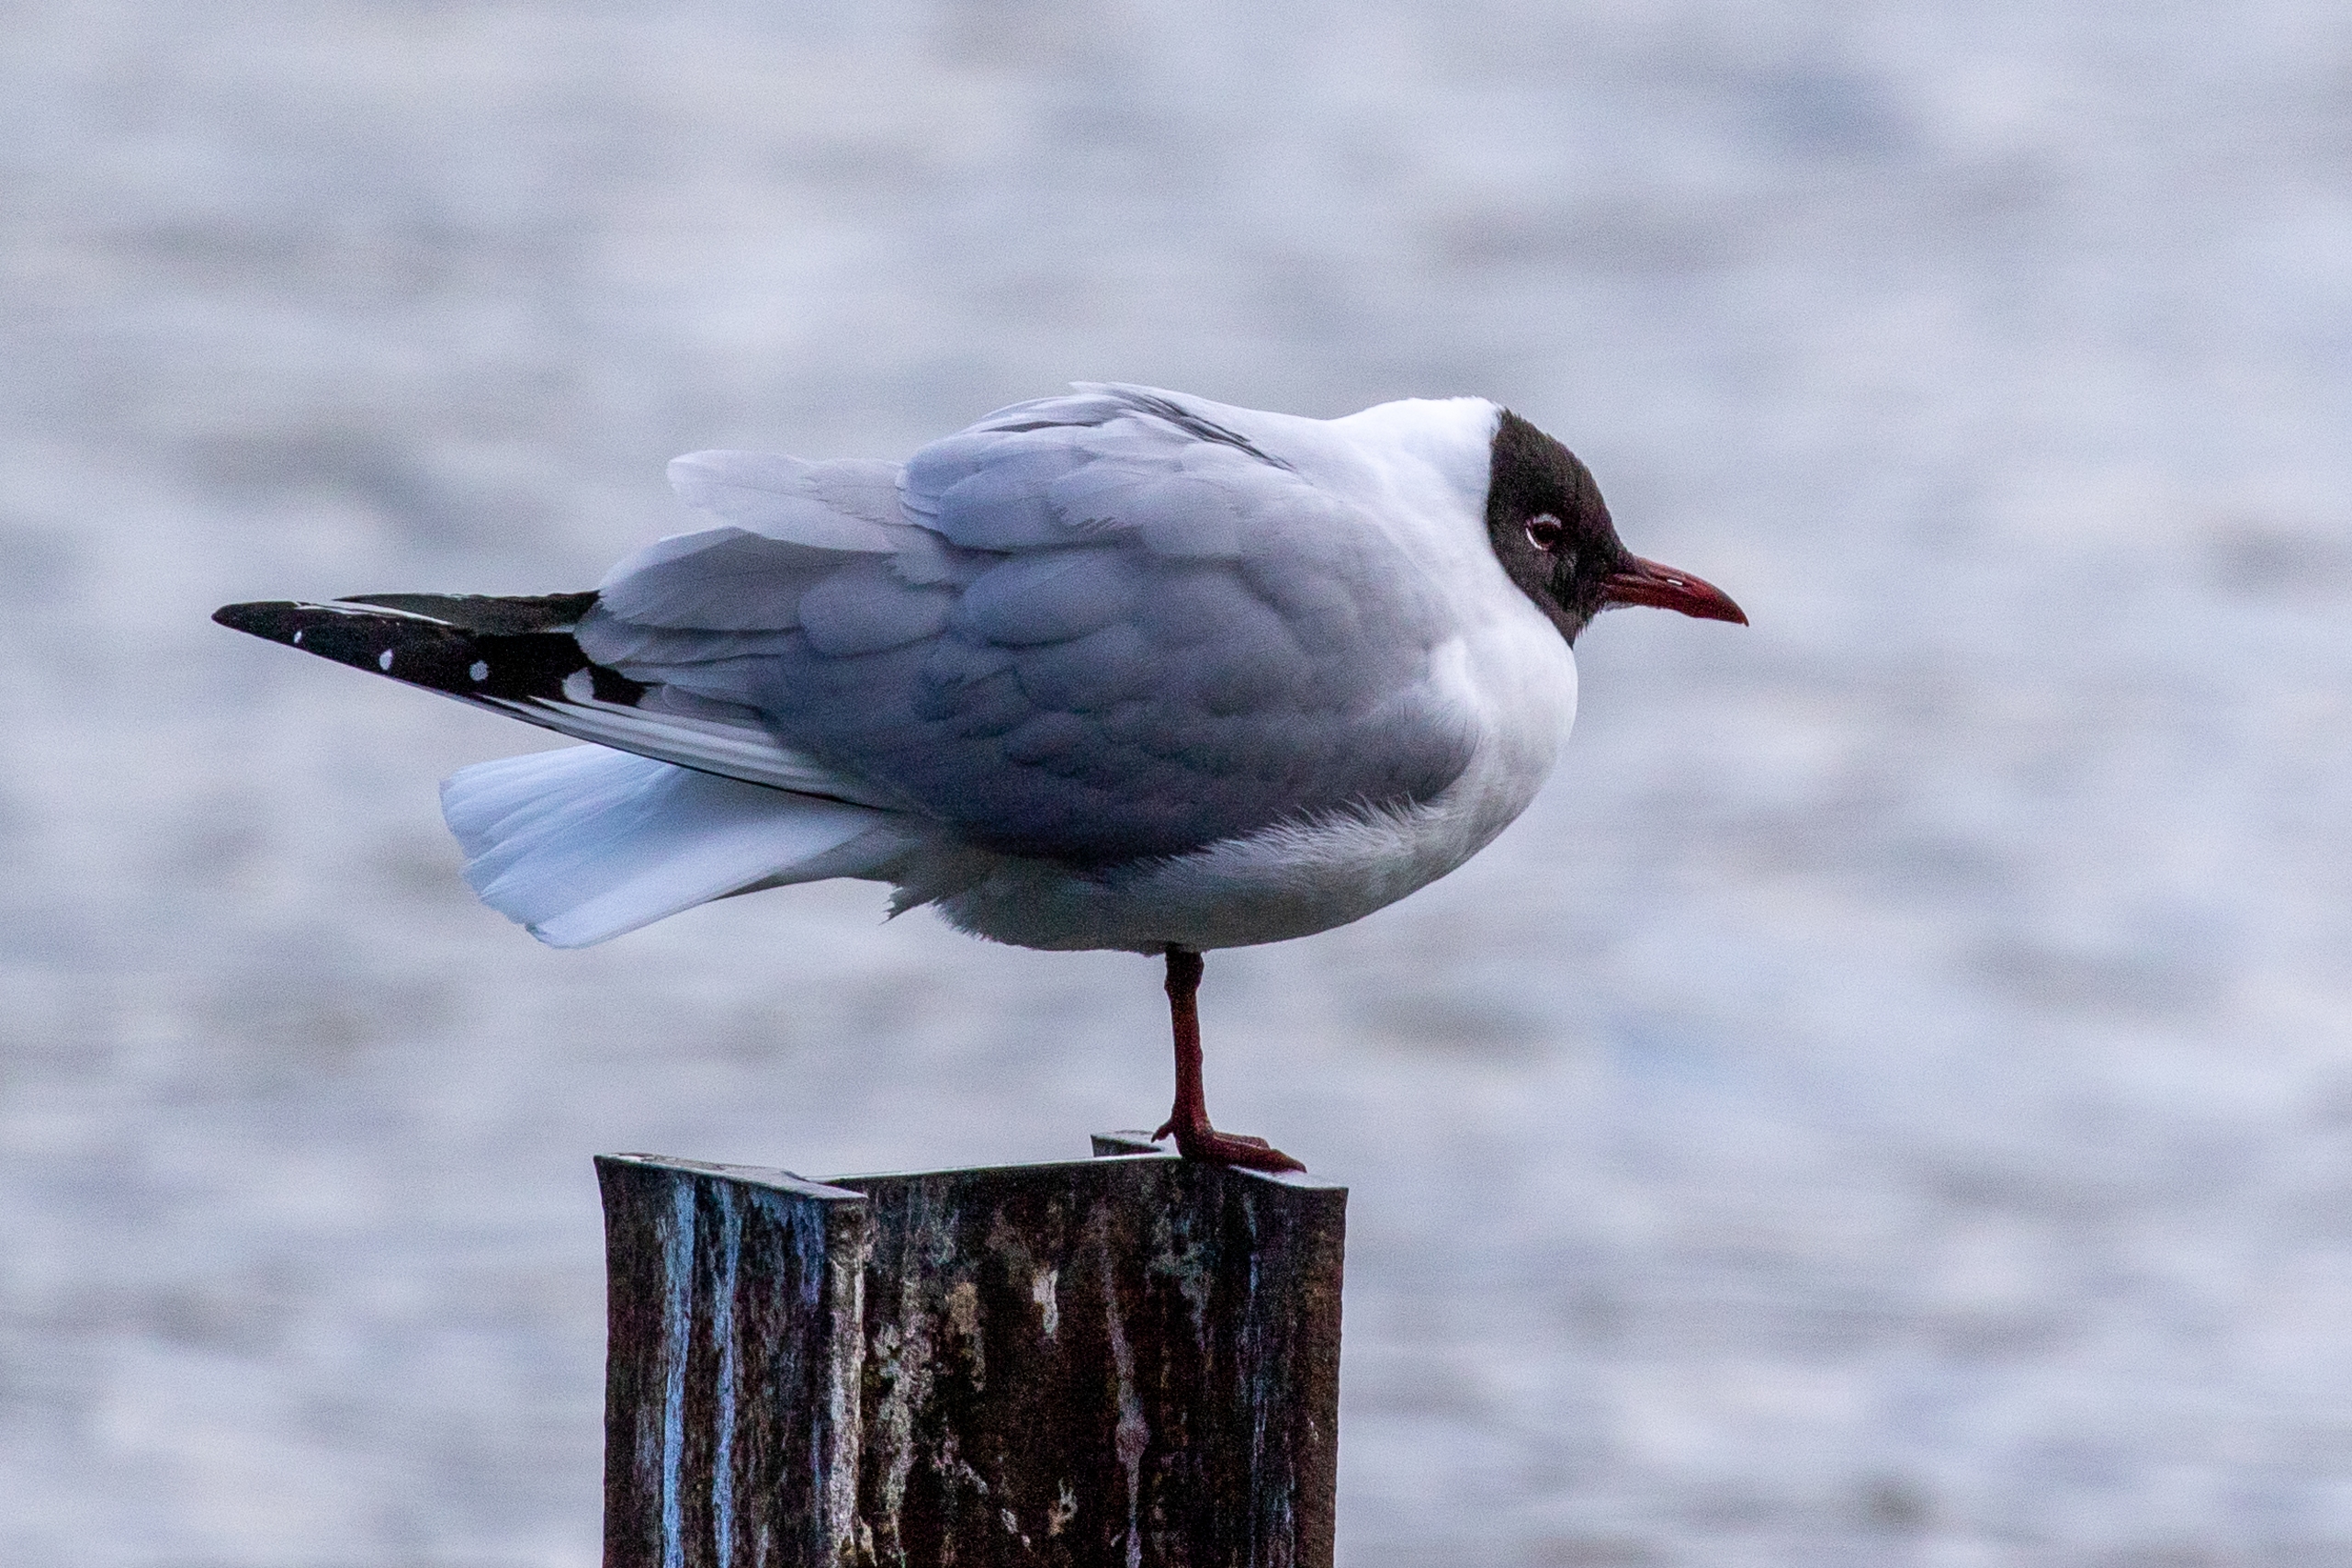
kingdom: Animalia
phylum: Chordata
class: Aves
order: Charadriiformes
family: Laridae
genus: Chroicocephalus
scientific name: Chroicocephalus ridibundus
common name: Hættemåge
